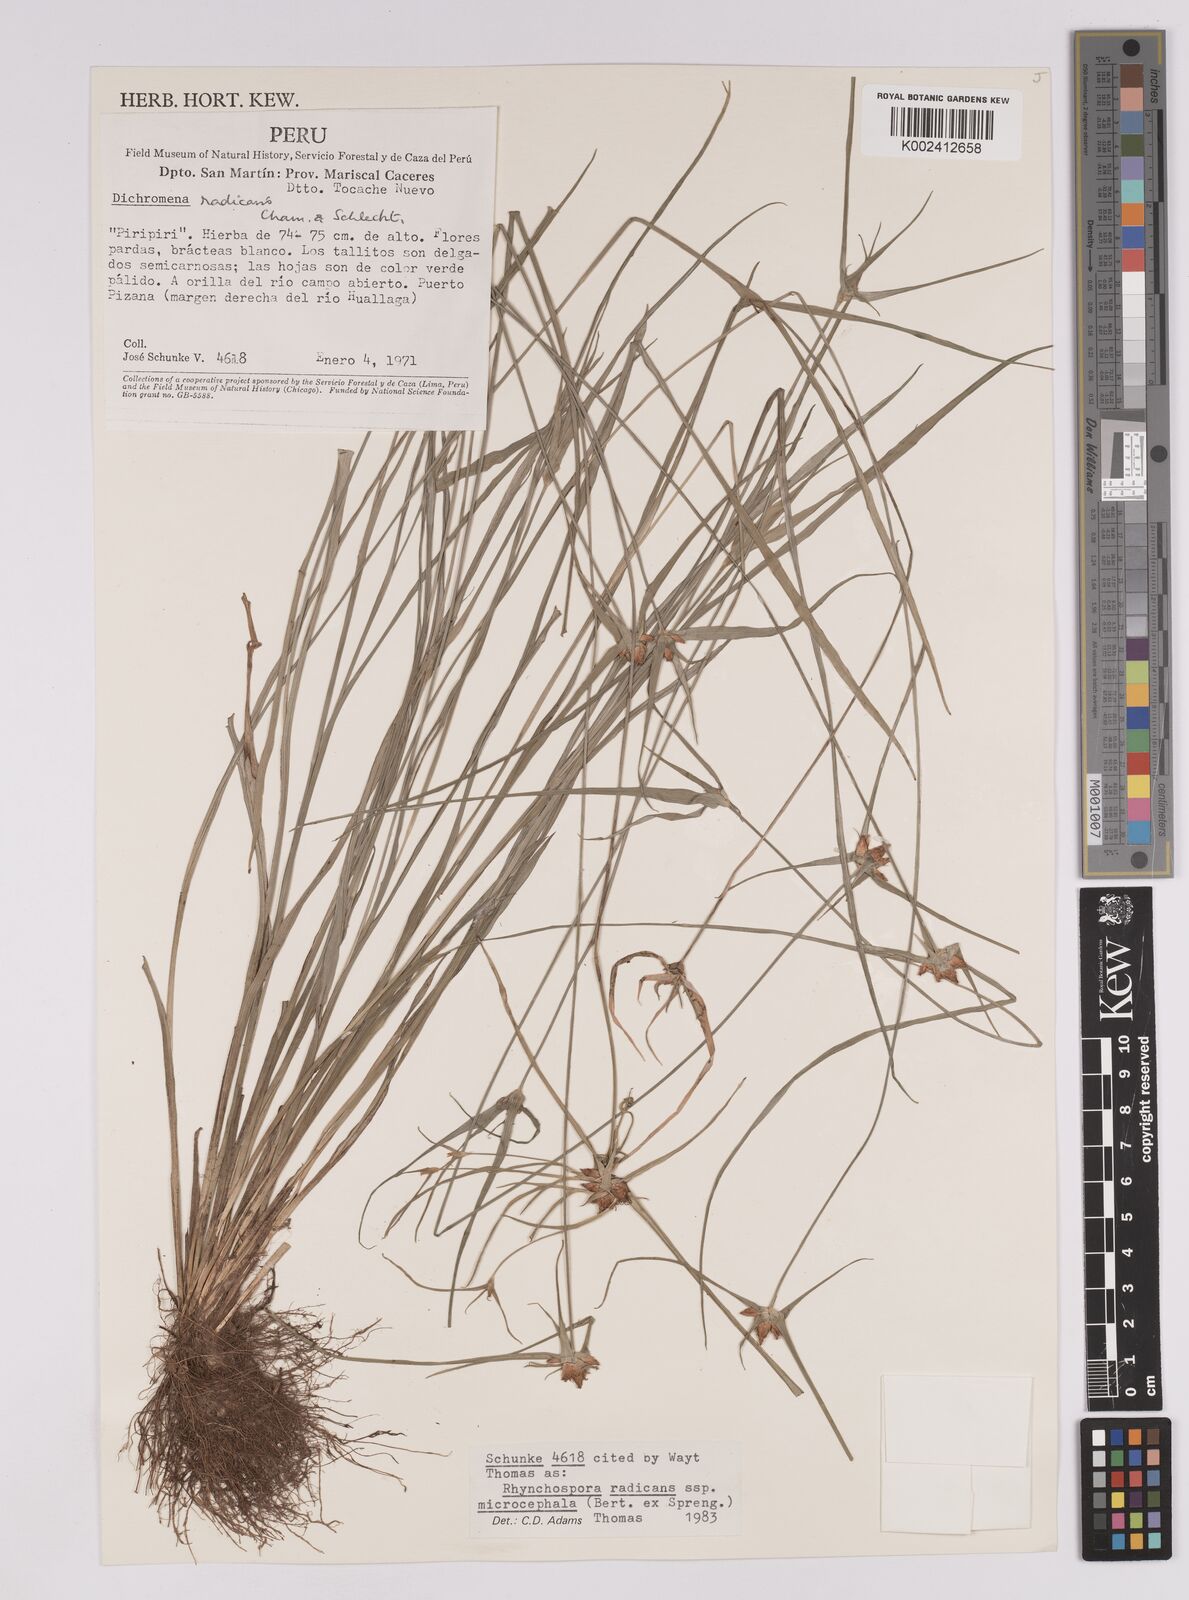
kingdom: Plantae
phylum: Tracheophyta
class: Liliopsida
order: Poales
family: Cyperaceae
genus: Rhynchospora
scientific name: Rhynchospora radicans
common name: Tropical whitetop
